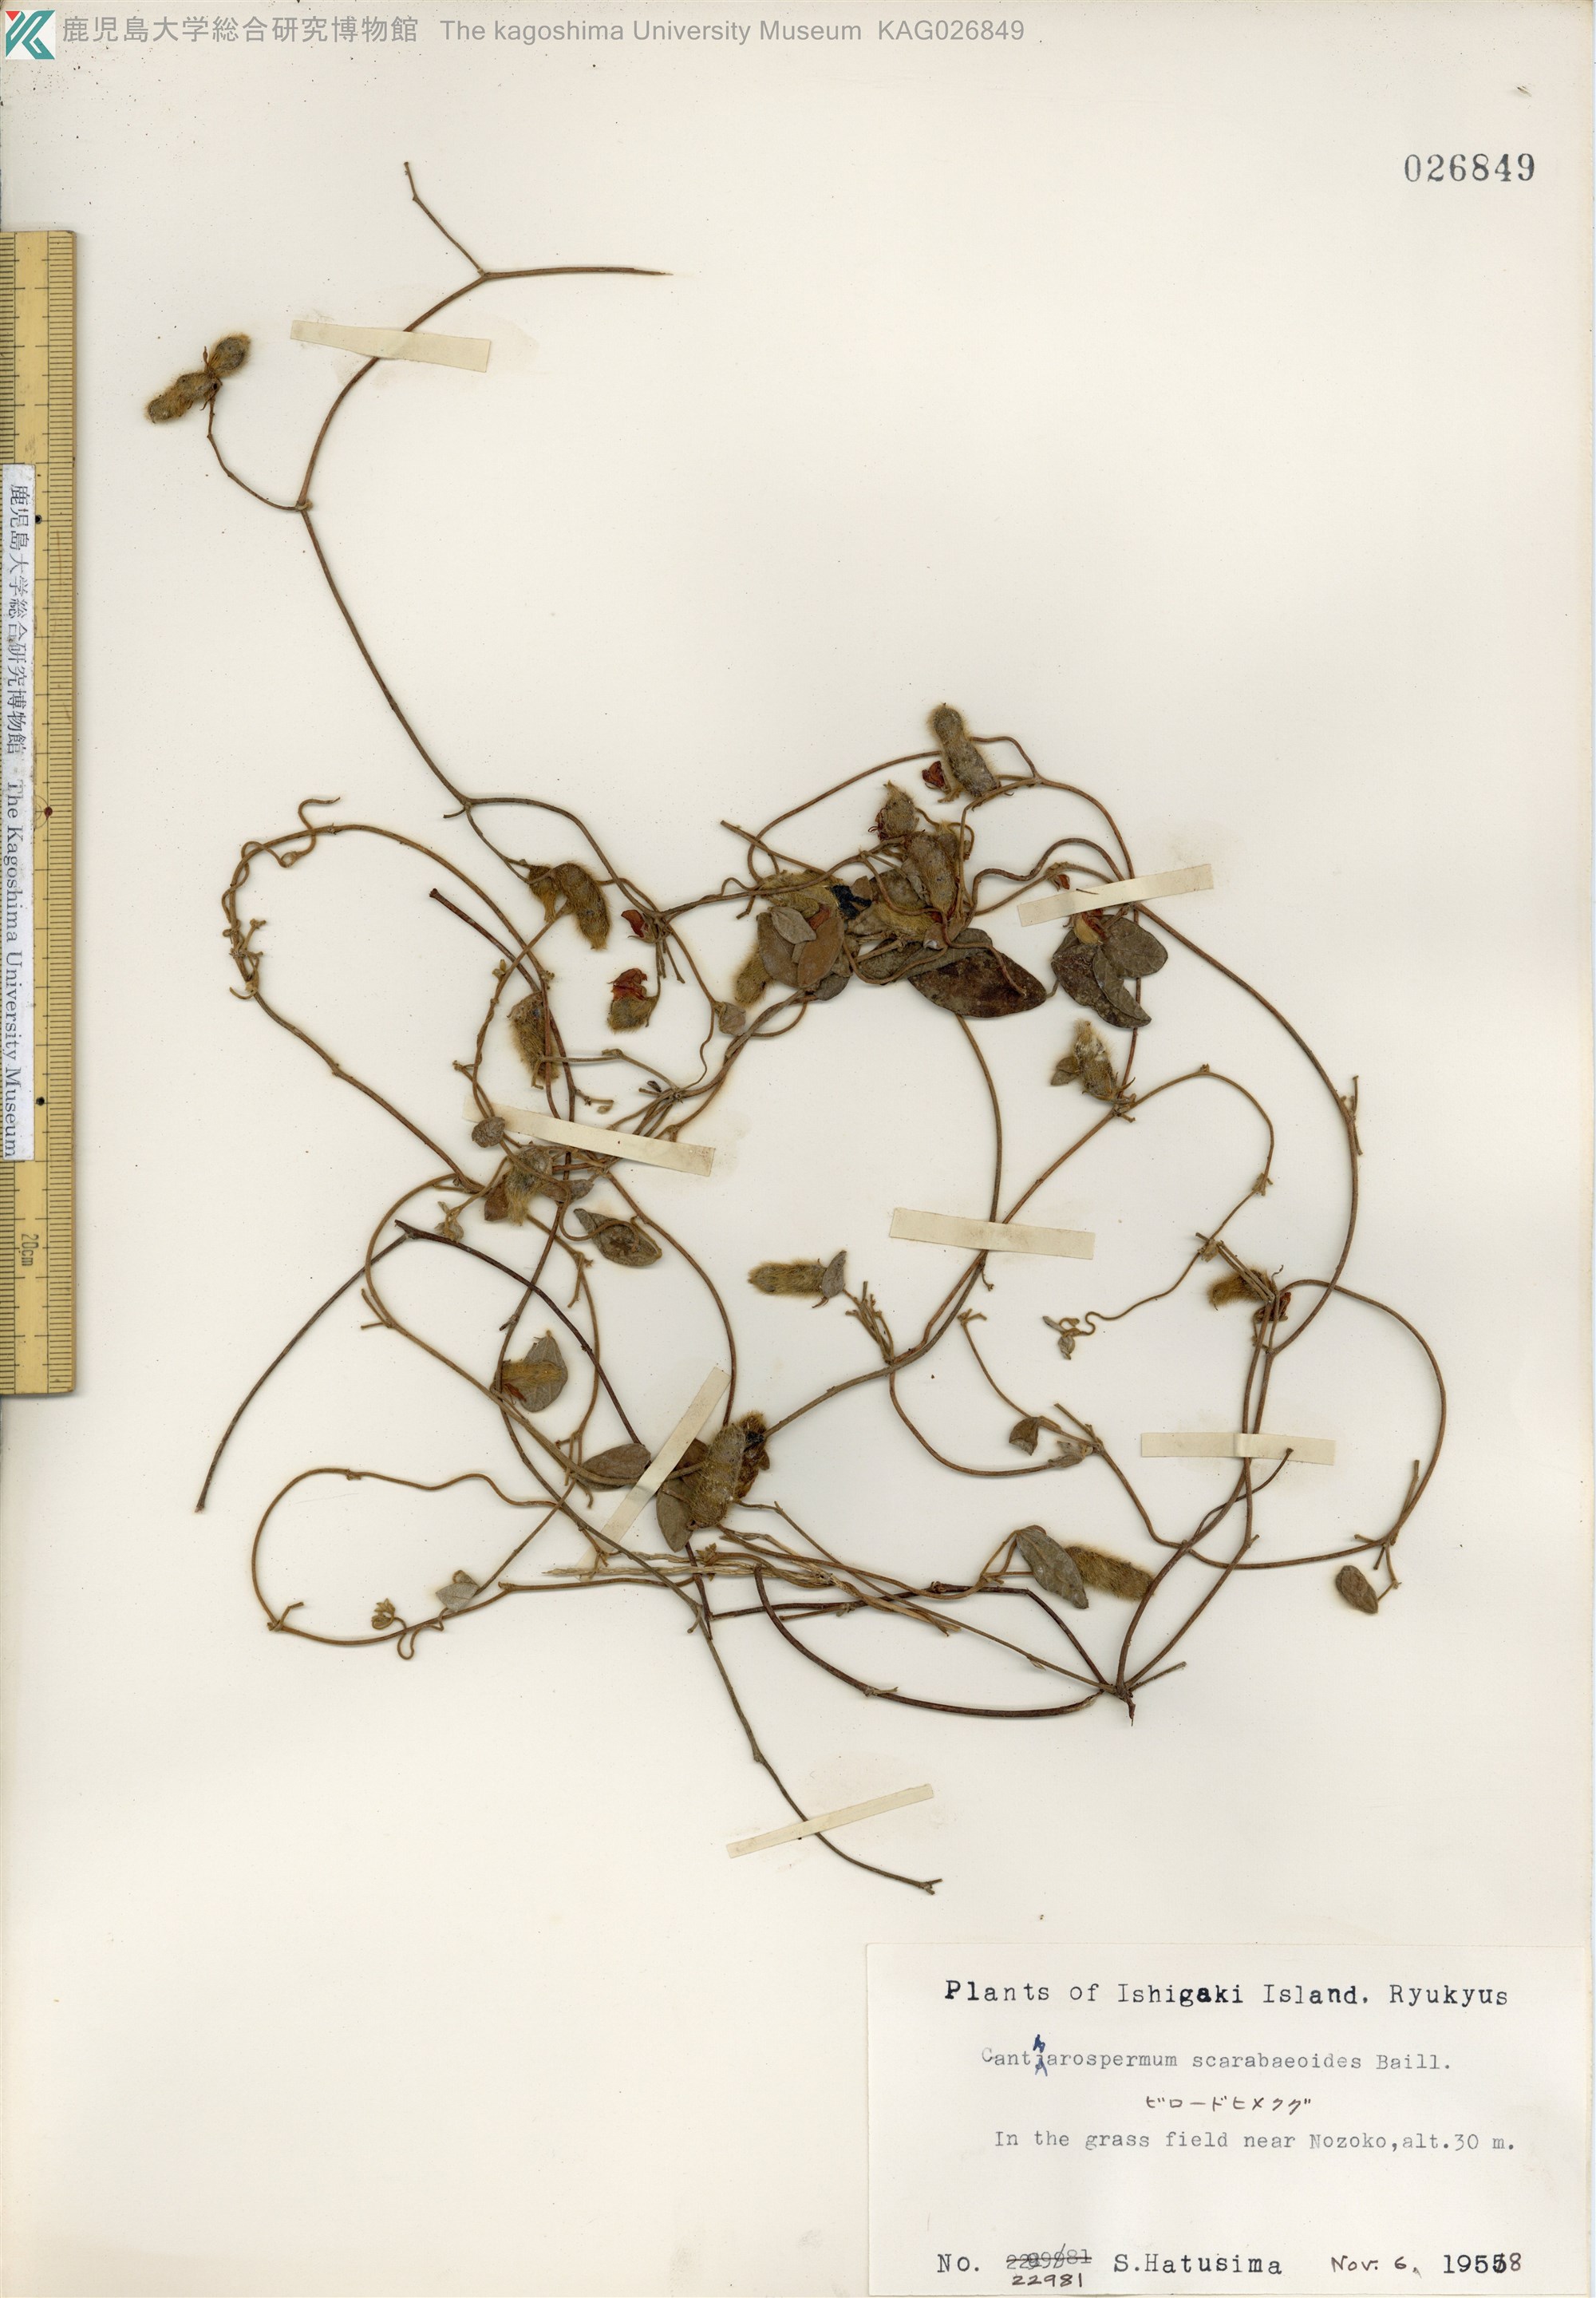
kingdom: Plantae
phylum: Tracheophyta
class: Magnoliopsida
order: Fabales
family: Fabaceae
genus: Cajanus
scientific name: Cajanus scarabaeoides
